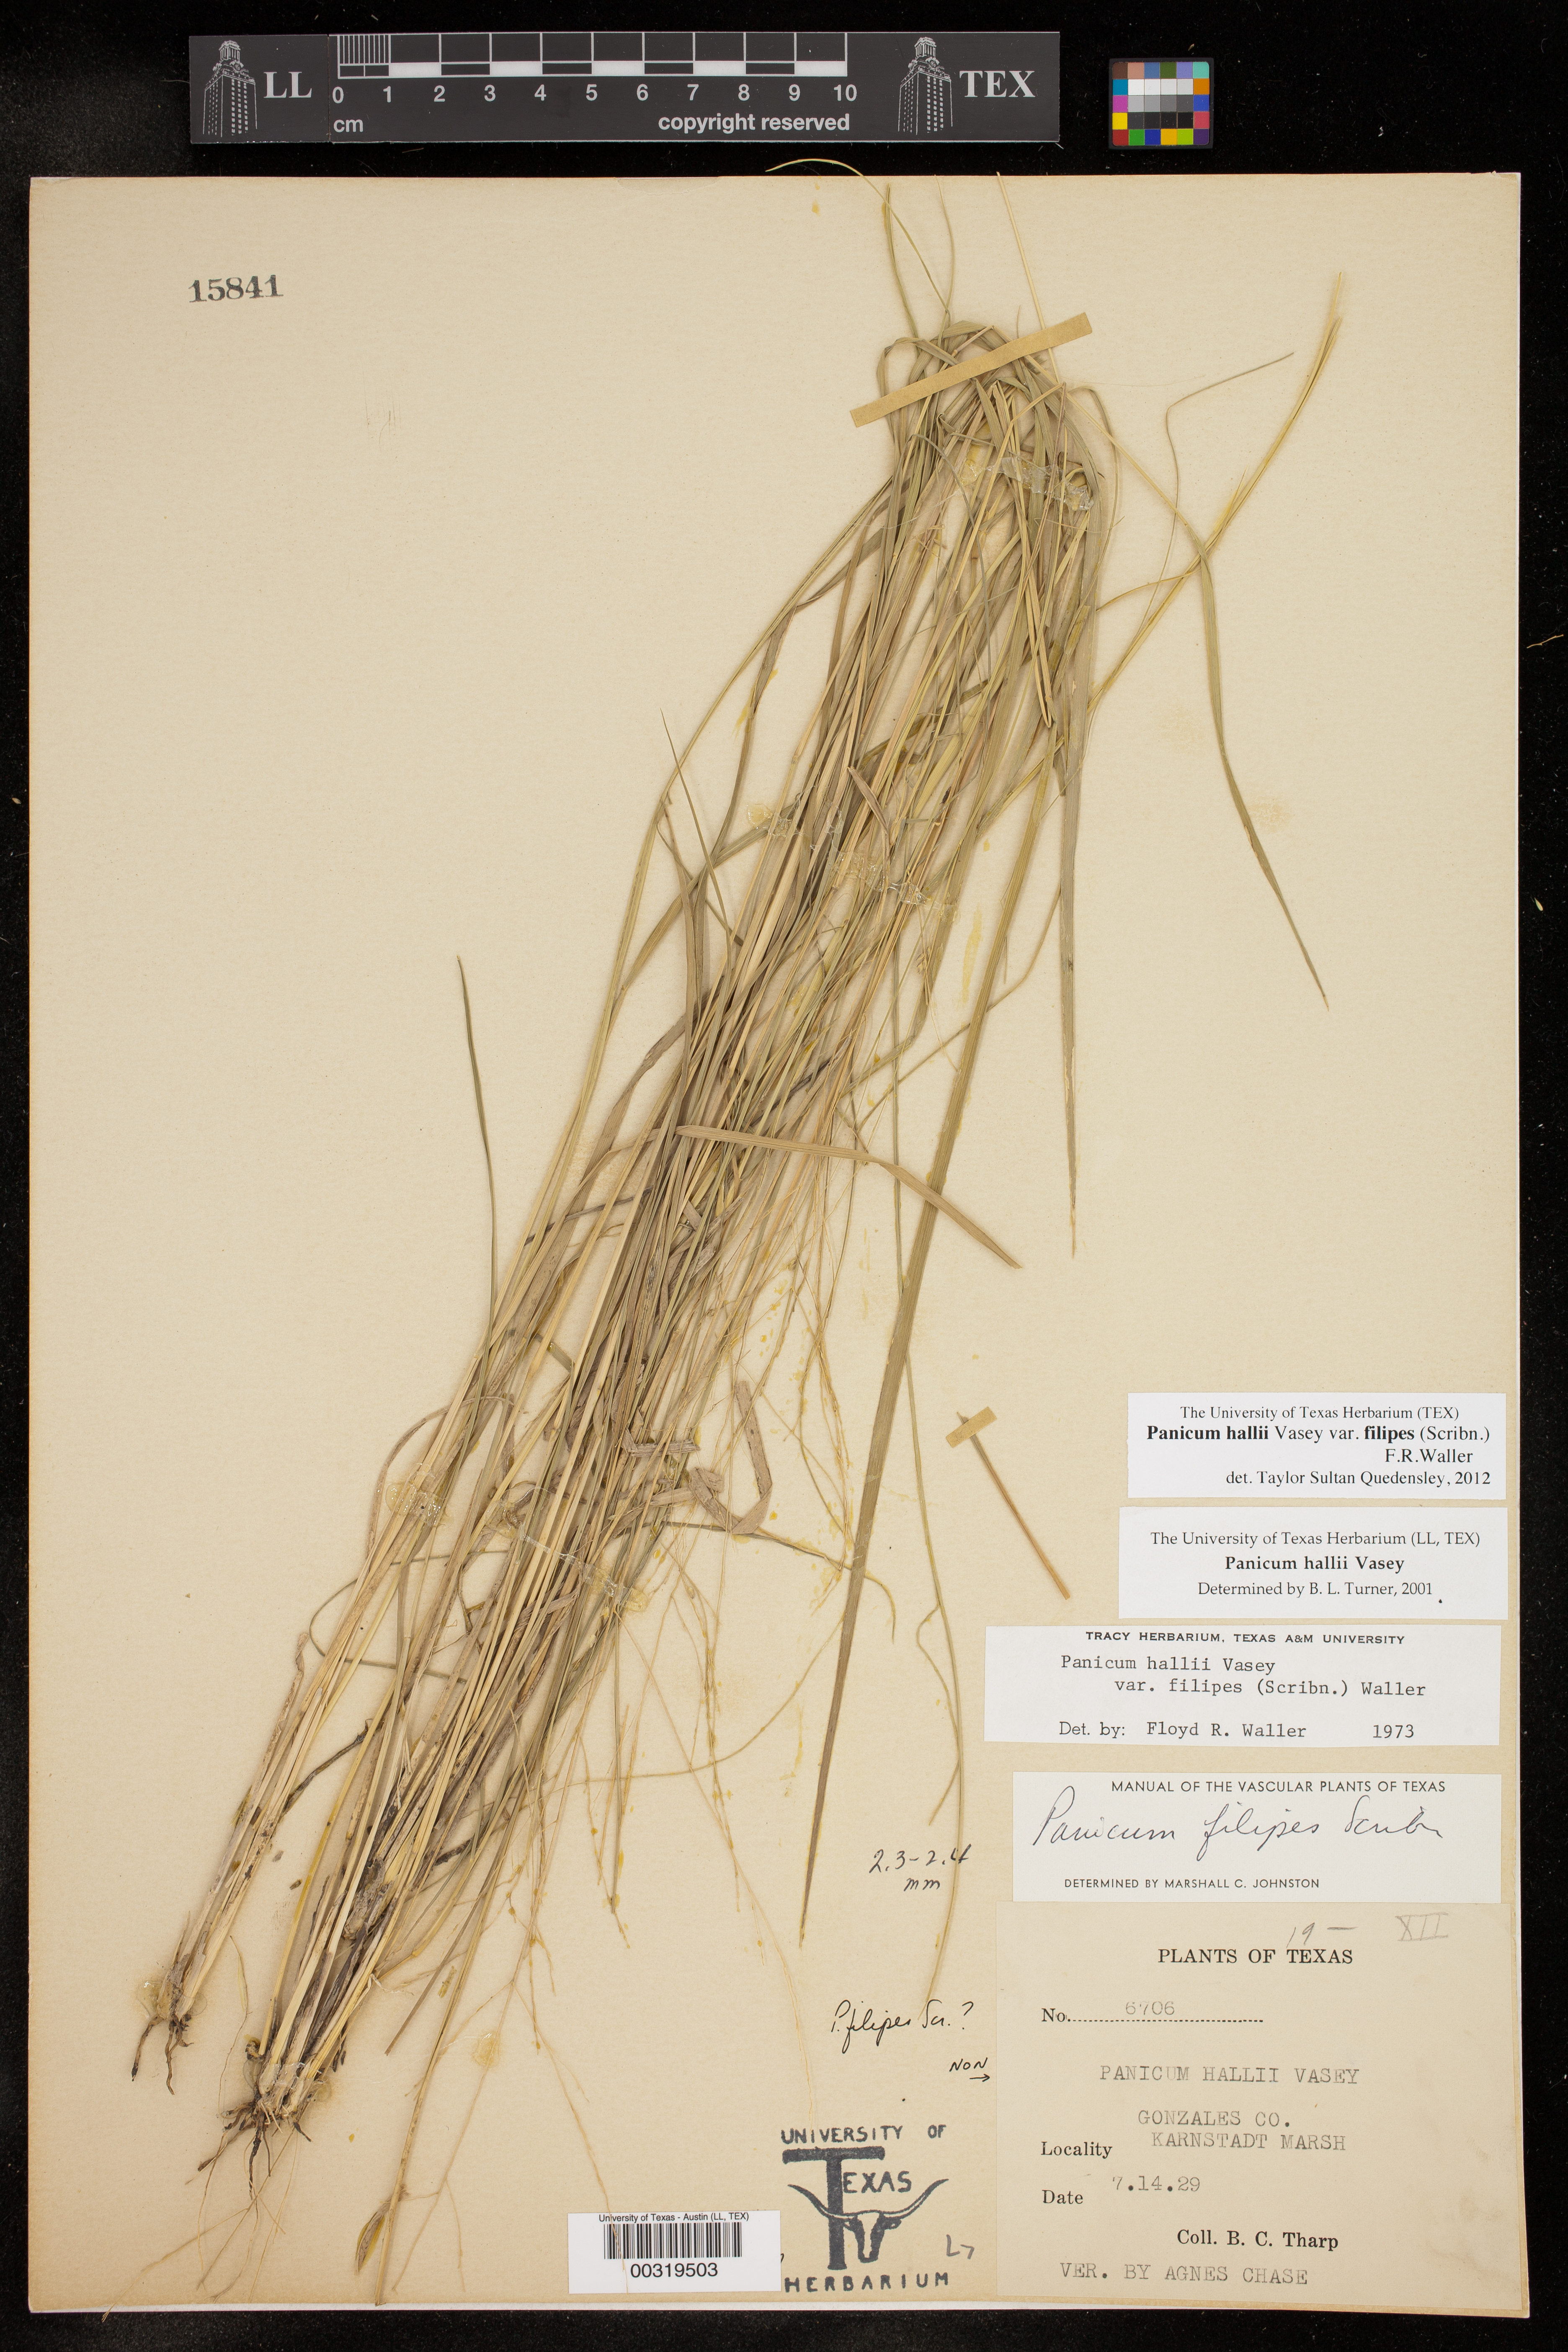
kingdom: Plantae
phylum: Tracheophyta
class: Liliopsida
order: Poales
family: Poaceae
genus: Panicum
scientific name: Panicum hallii
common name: Hall's witchgrass
